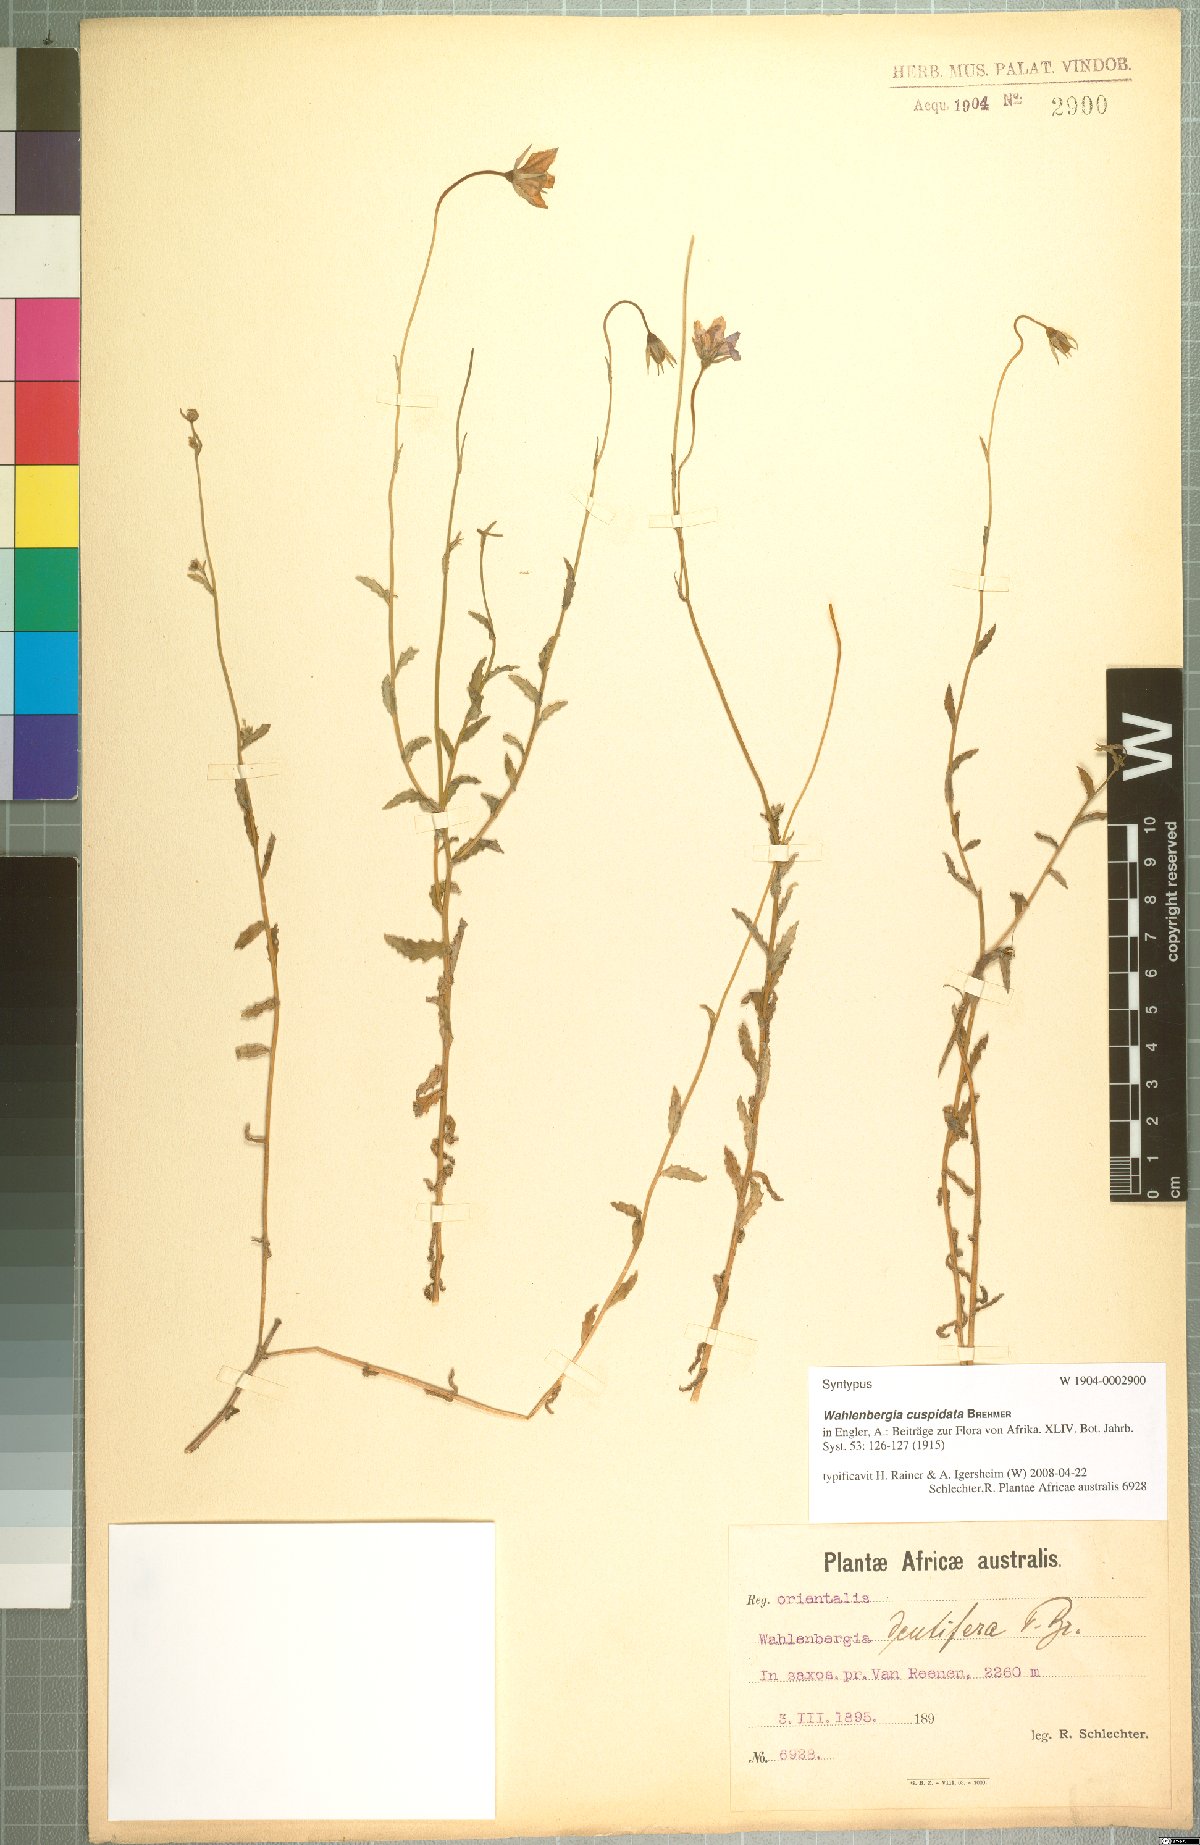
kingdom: Plantae
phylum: Tracheophyta
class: Magnoliopsida
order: Asterales
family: Campanulaceae
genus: Wahlenbergia
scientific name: Wahlenbergia cuspidata
